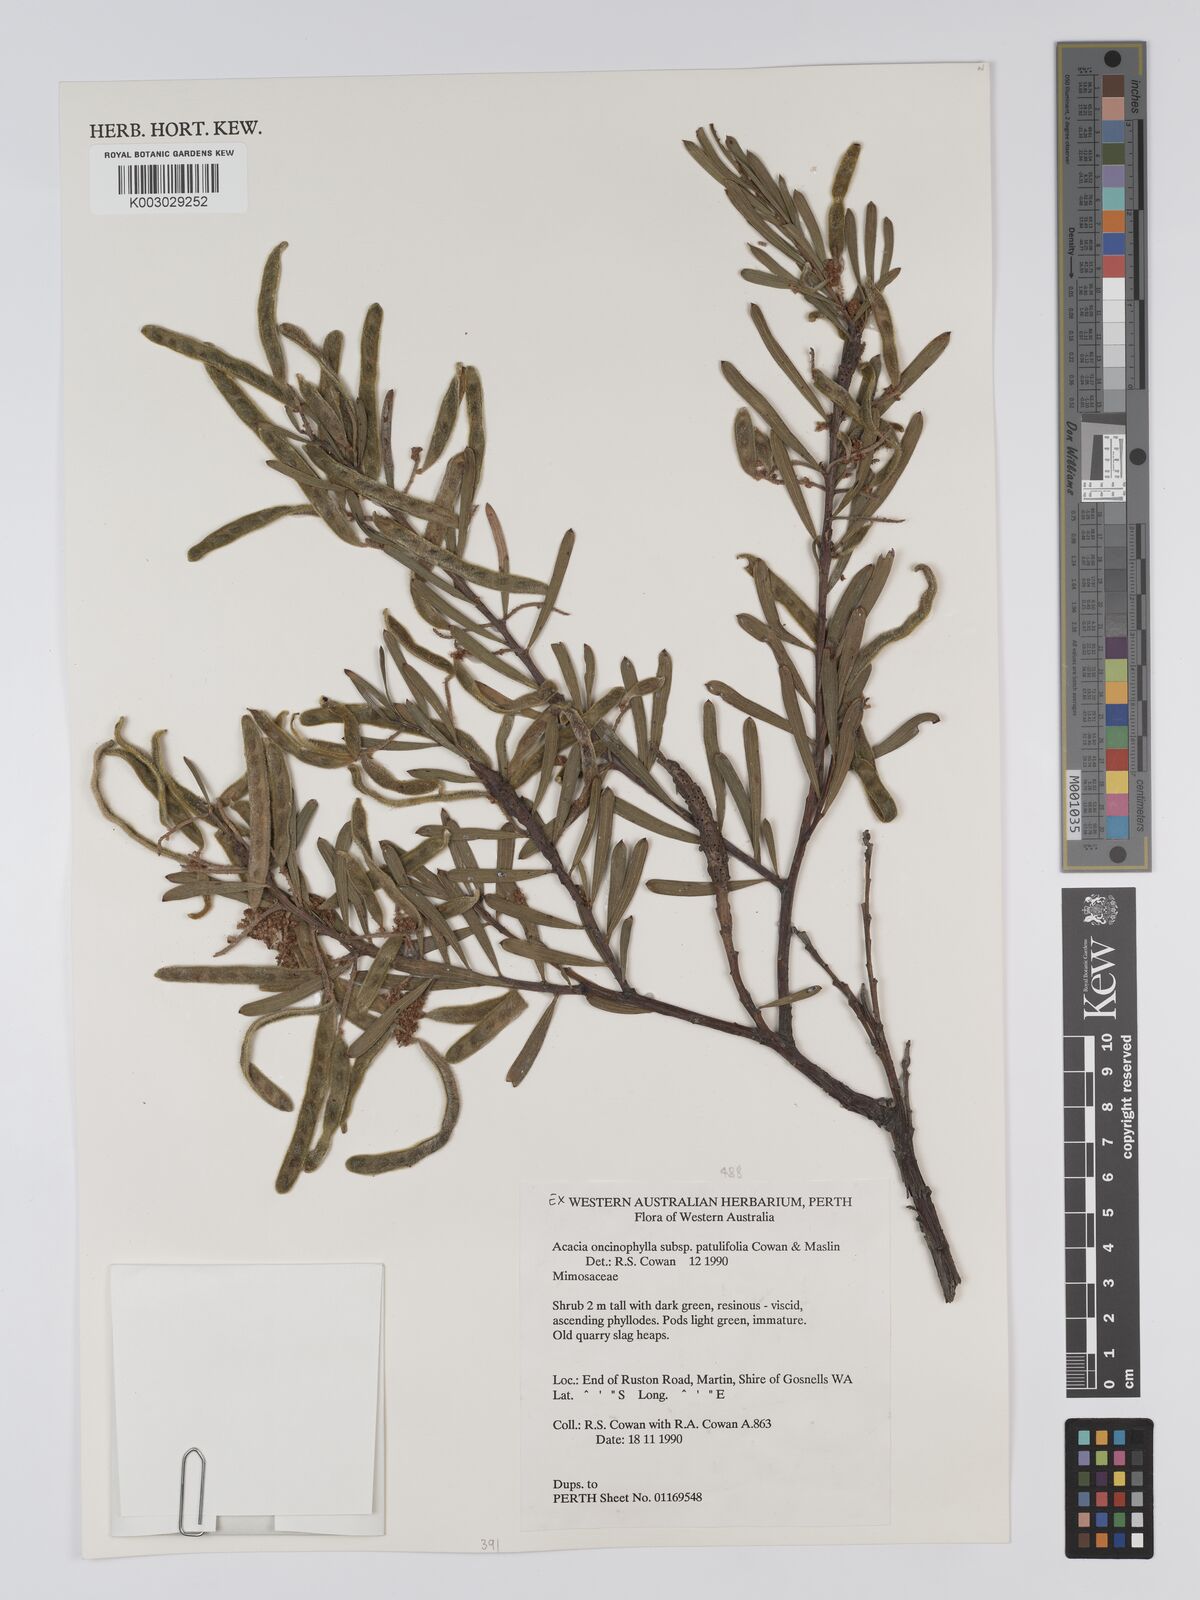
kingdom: Plantae
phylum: Tracheophyta
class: Magnoliopsida
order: Fabales
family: Fabaceae
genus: Acacia
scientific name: Acacia oncinophylla
